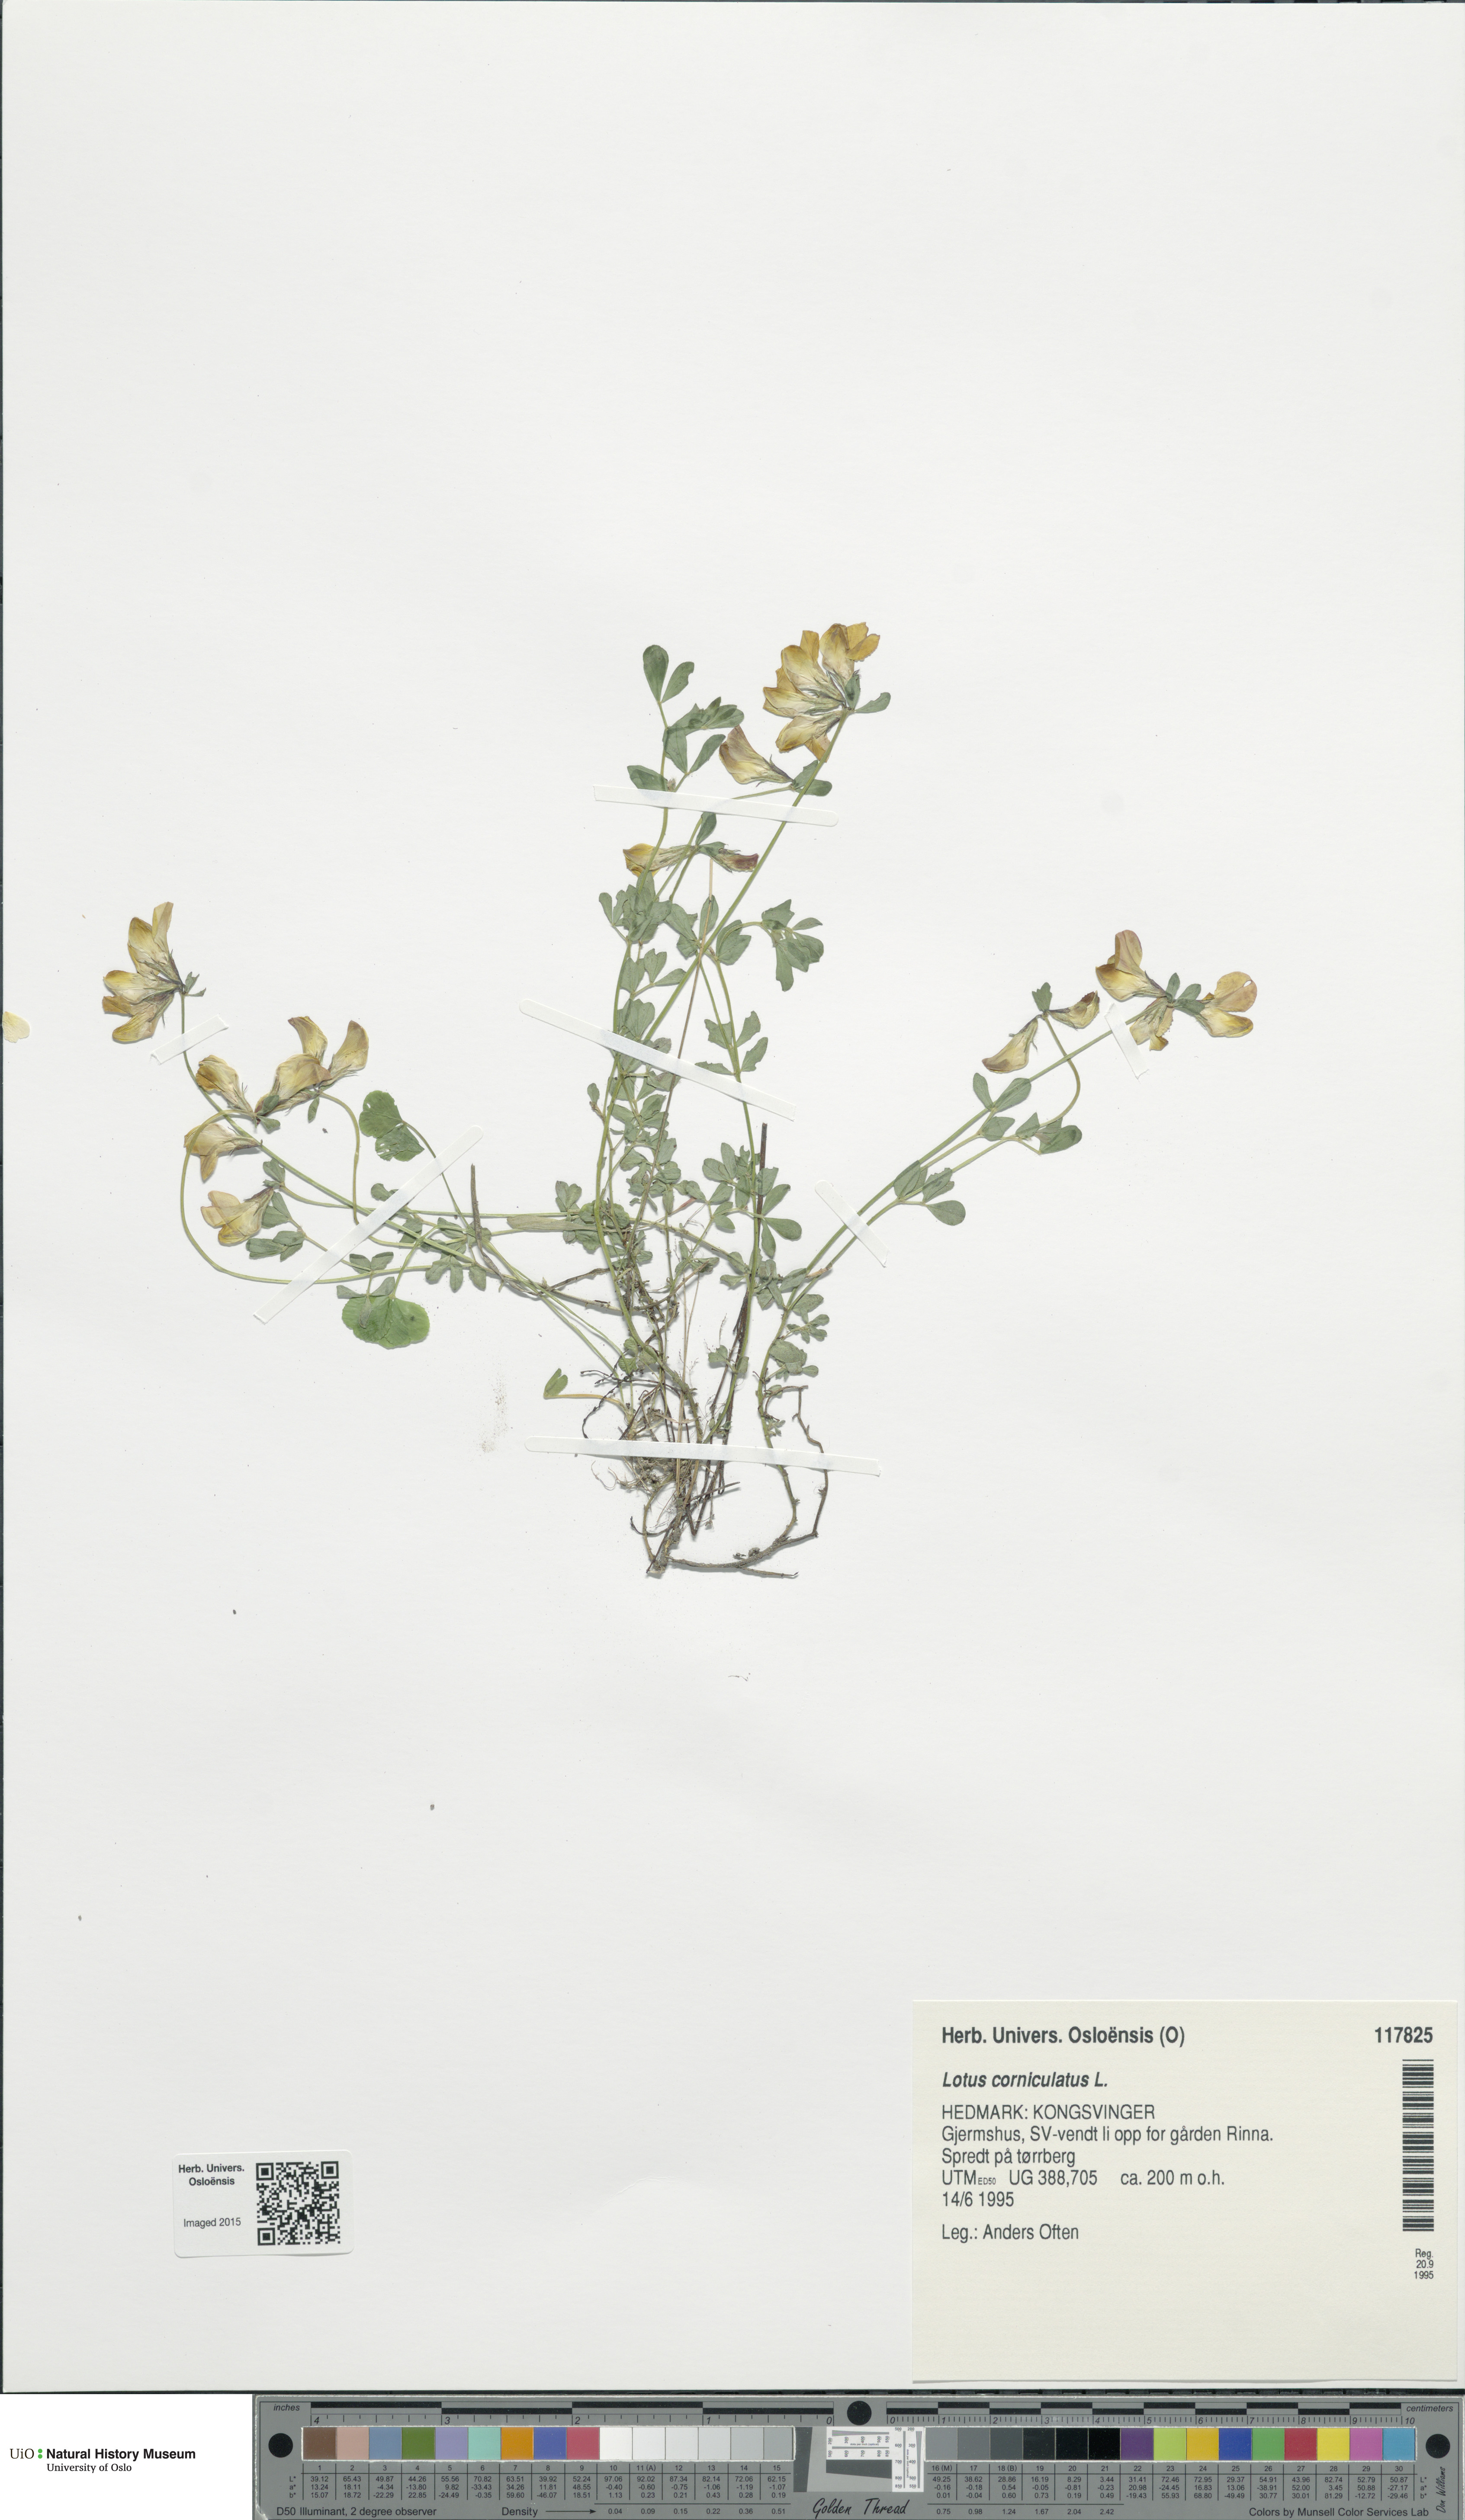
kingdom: Plantae
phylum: Tracheophyta
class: Magnoliopsida
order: Fabales
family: Fabaceae
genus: Lotus
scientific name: Lotus corniculatus
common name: Common bird's-foot-trefoil
